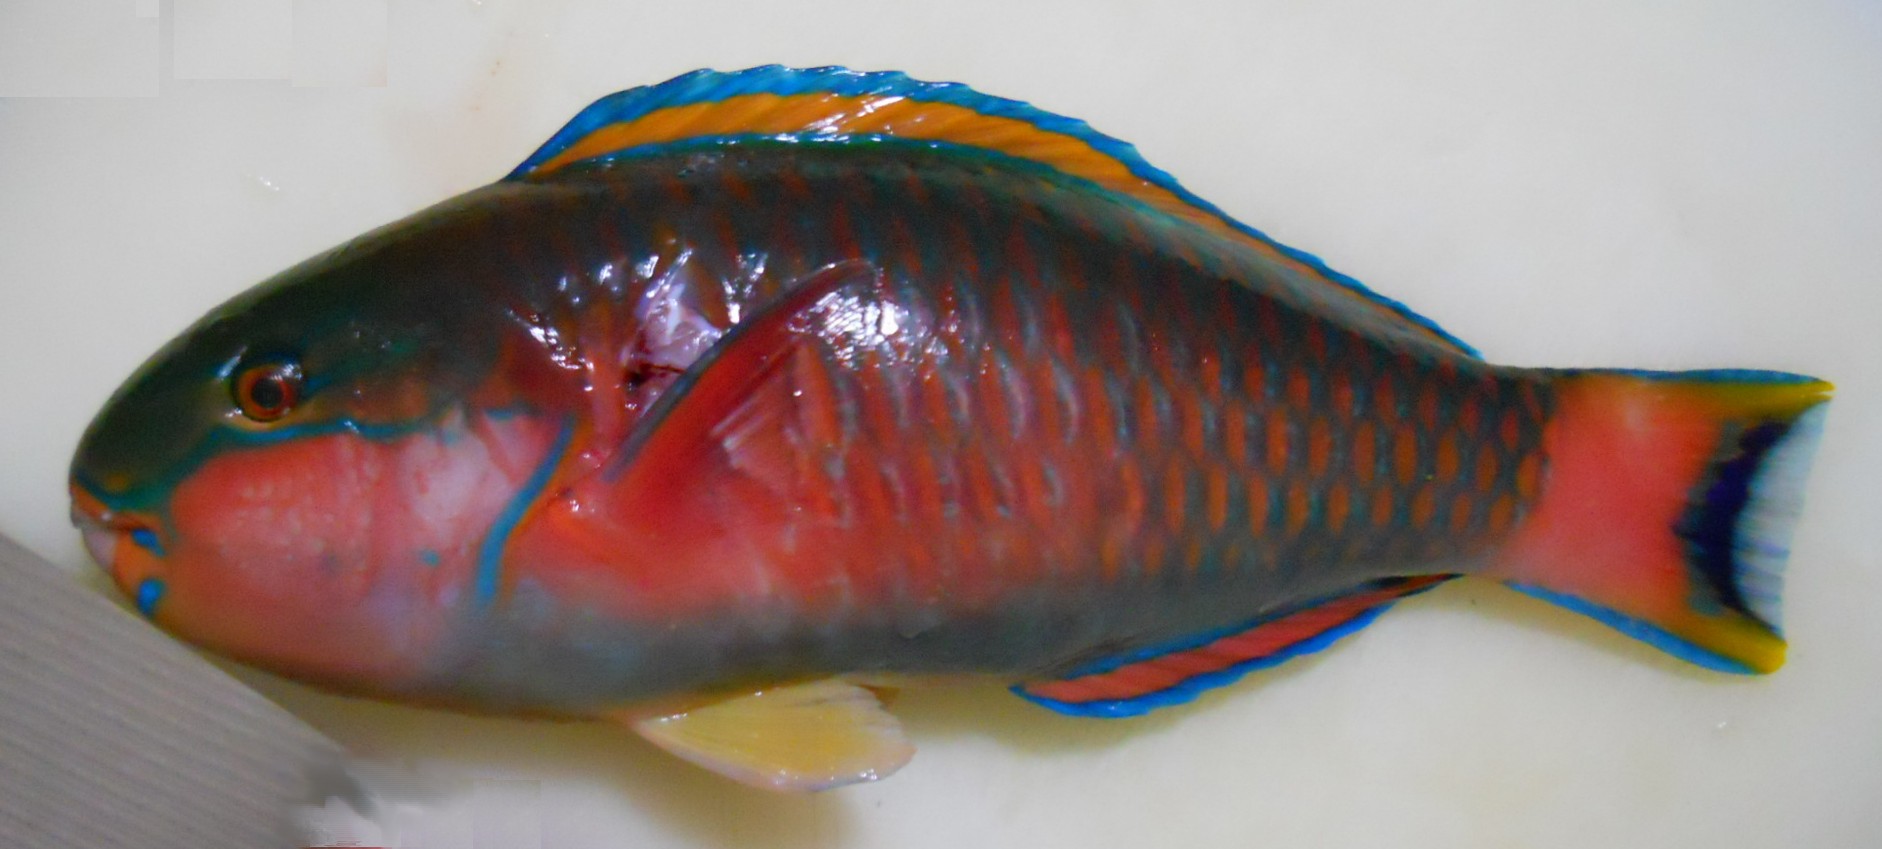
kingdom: Animalia
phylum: Chordata
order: Perciformes
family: Scaridae
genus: Chlorurus
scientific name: Chlorurus atrilunula
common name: Bluemoon parrotfish
